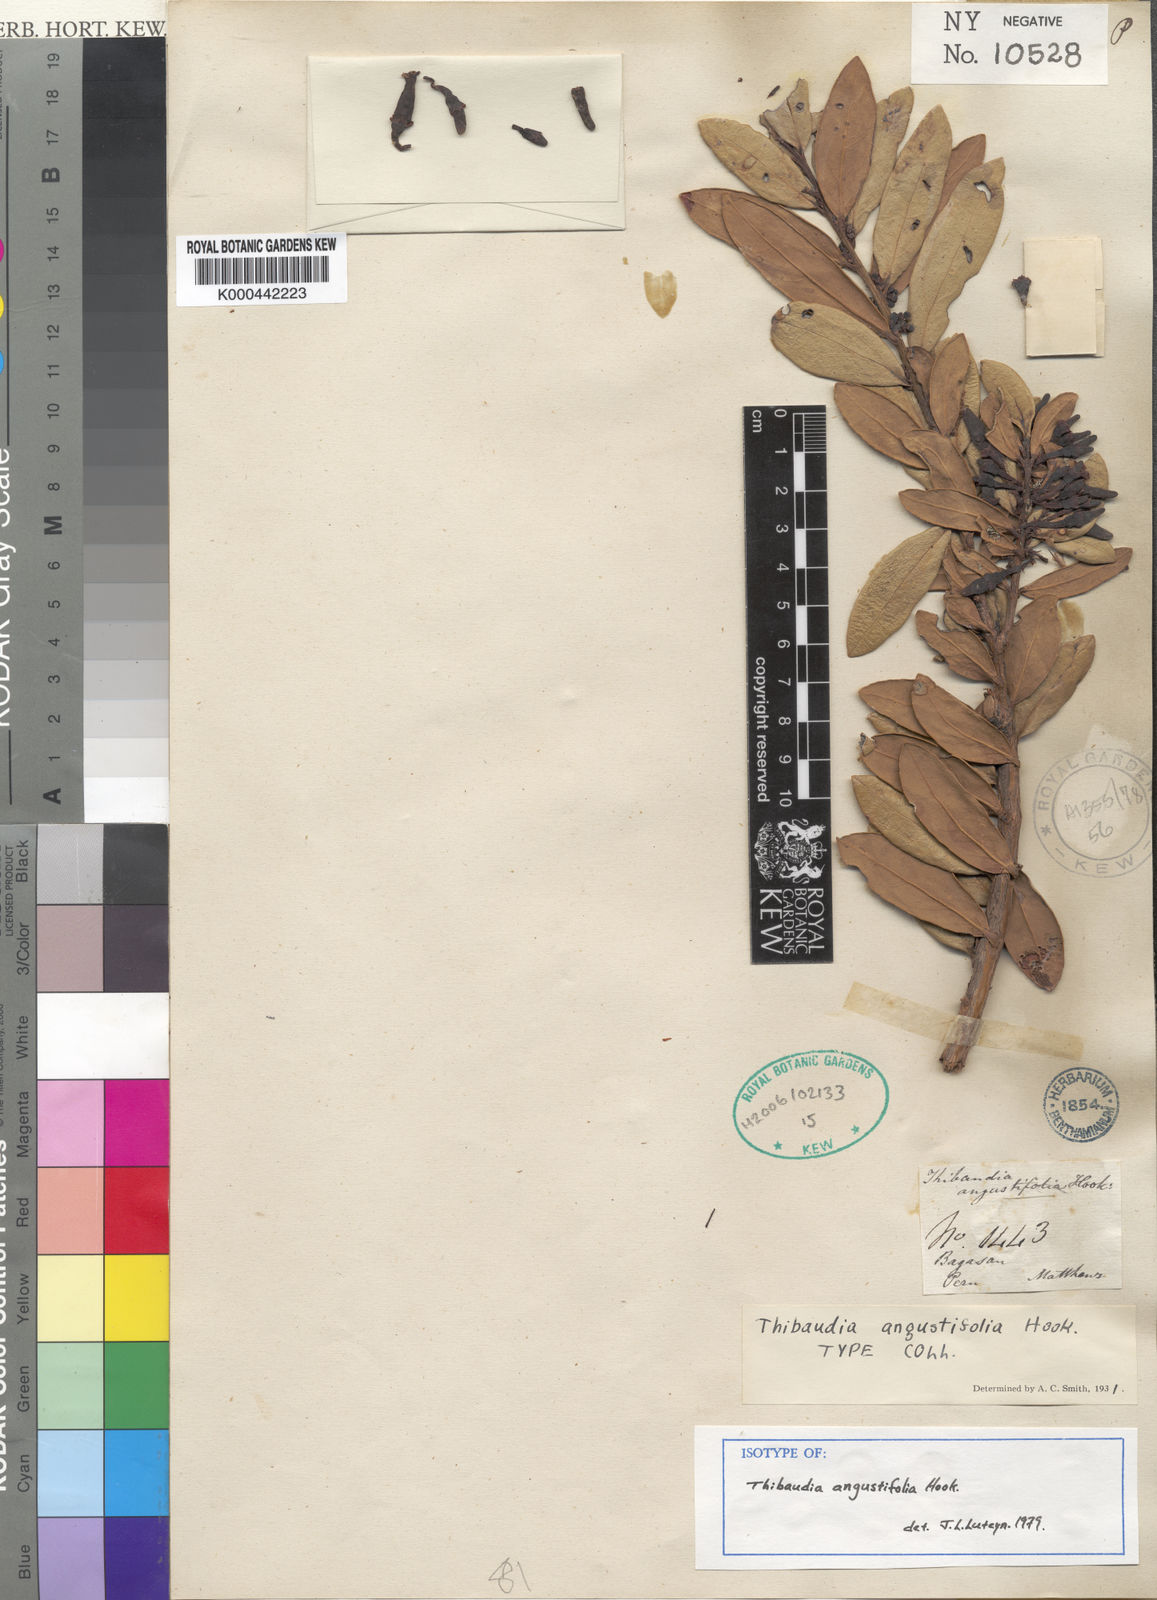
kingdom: Plantae
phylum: Tracheophyta
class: Magnoliopsida
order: Ericales
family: Ericaceae
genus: Thibaudia
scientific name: Thibaudia angustifolia
